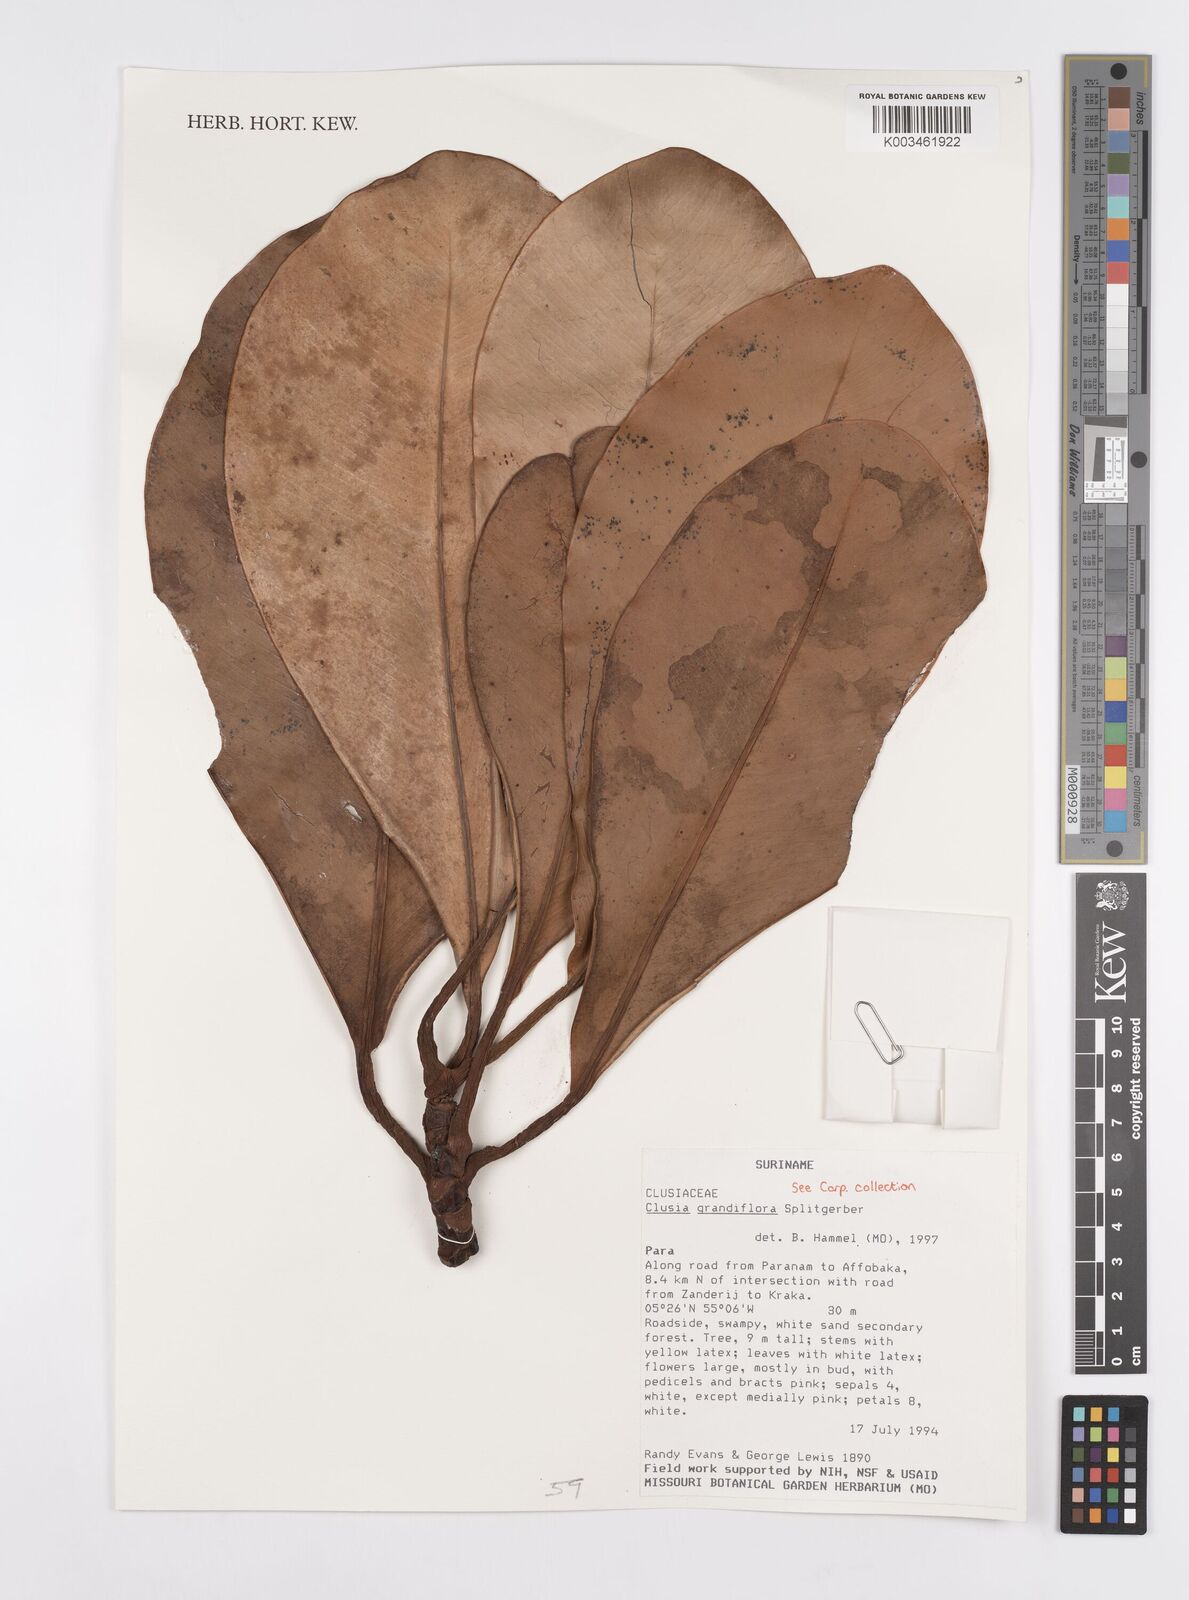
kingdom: Plantae
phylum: Tracheophyta
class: Magnoliopsida
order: Malpighiales
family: Clusiaceae
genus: Clusia
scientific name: Clusia grandiflora
